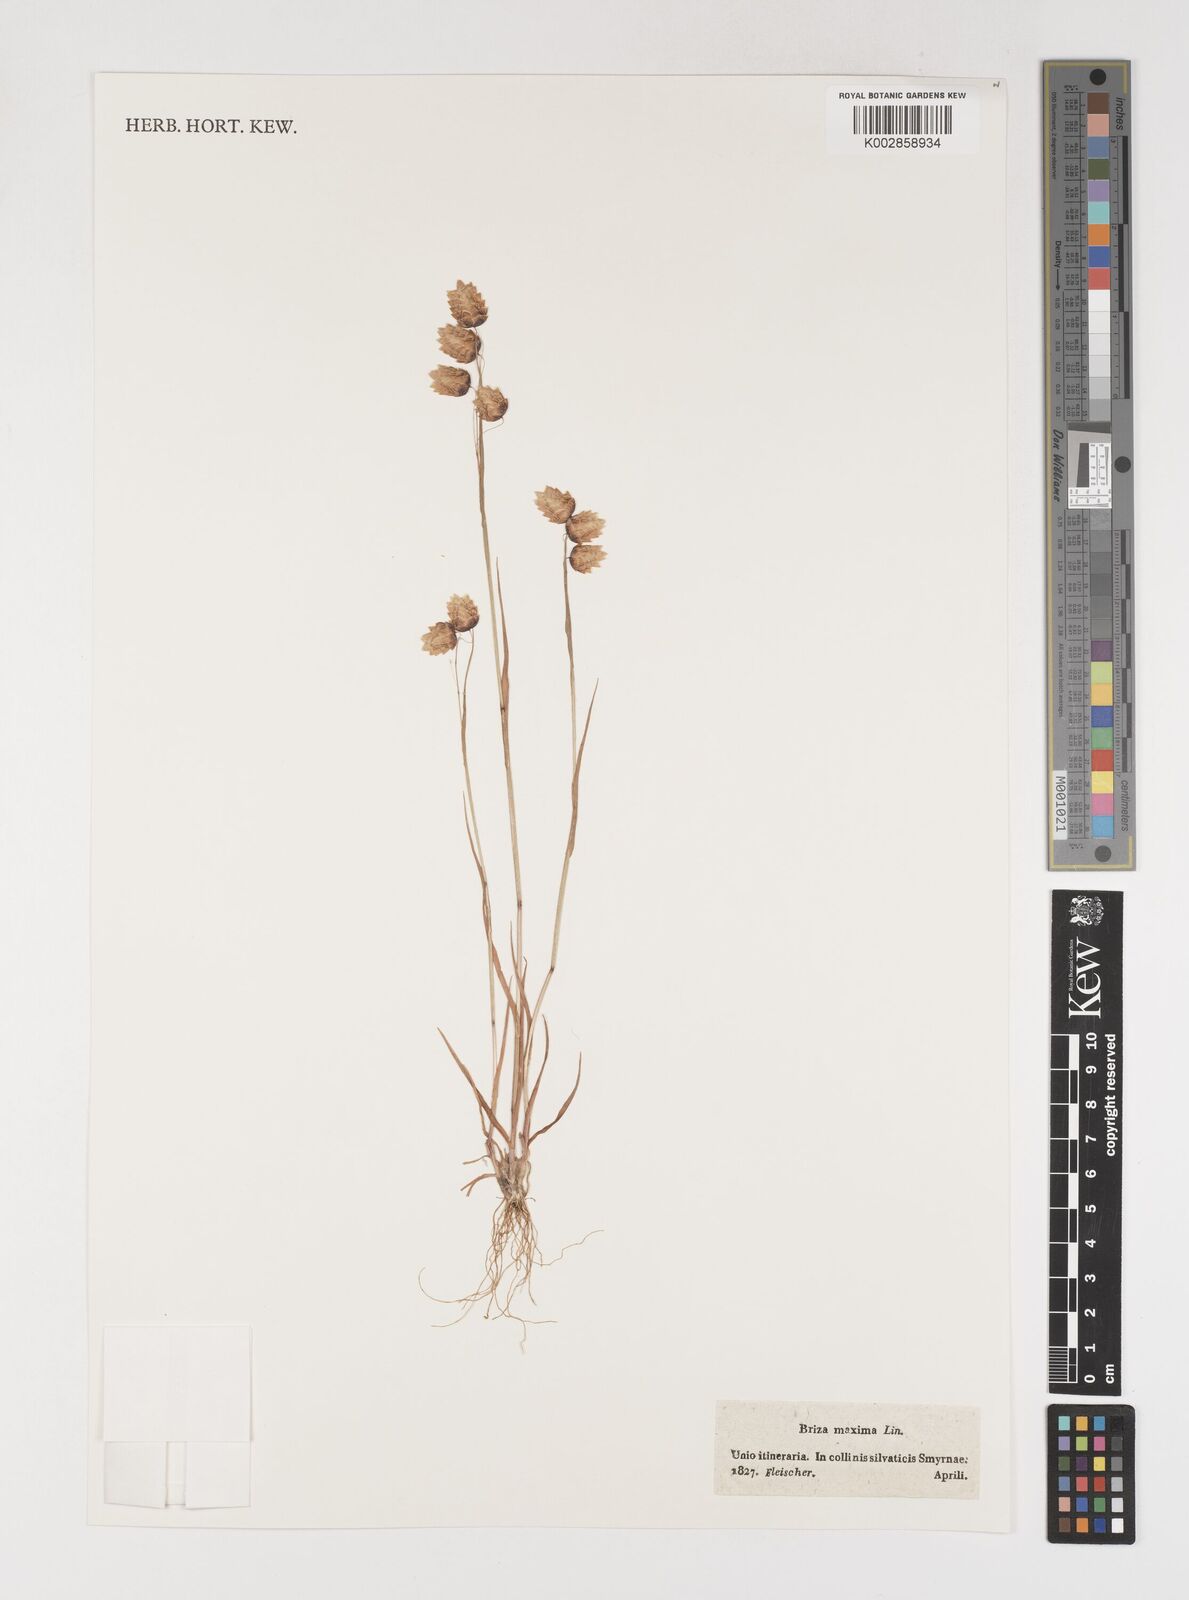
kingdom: Plantae
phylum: Tracheophyta
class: Liliopsida
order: Poales
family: Poaceae
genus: Briza
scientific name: Briza maxima
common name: Big quakinggrass
